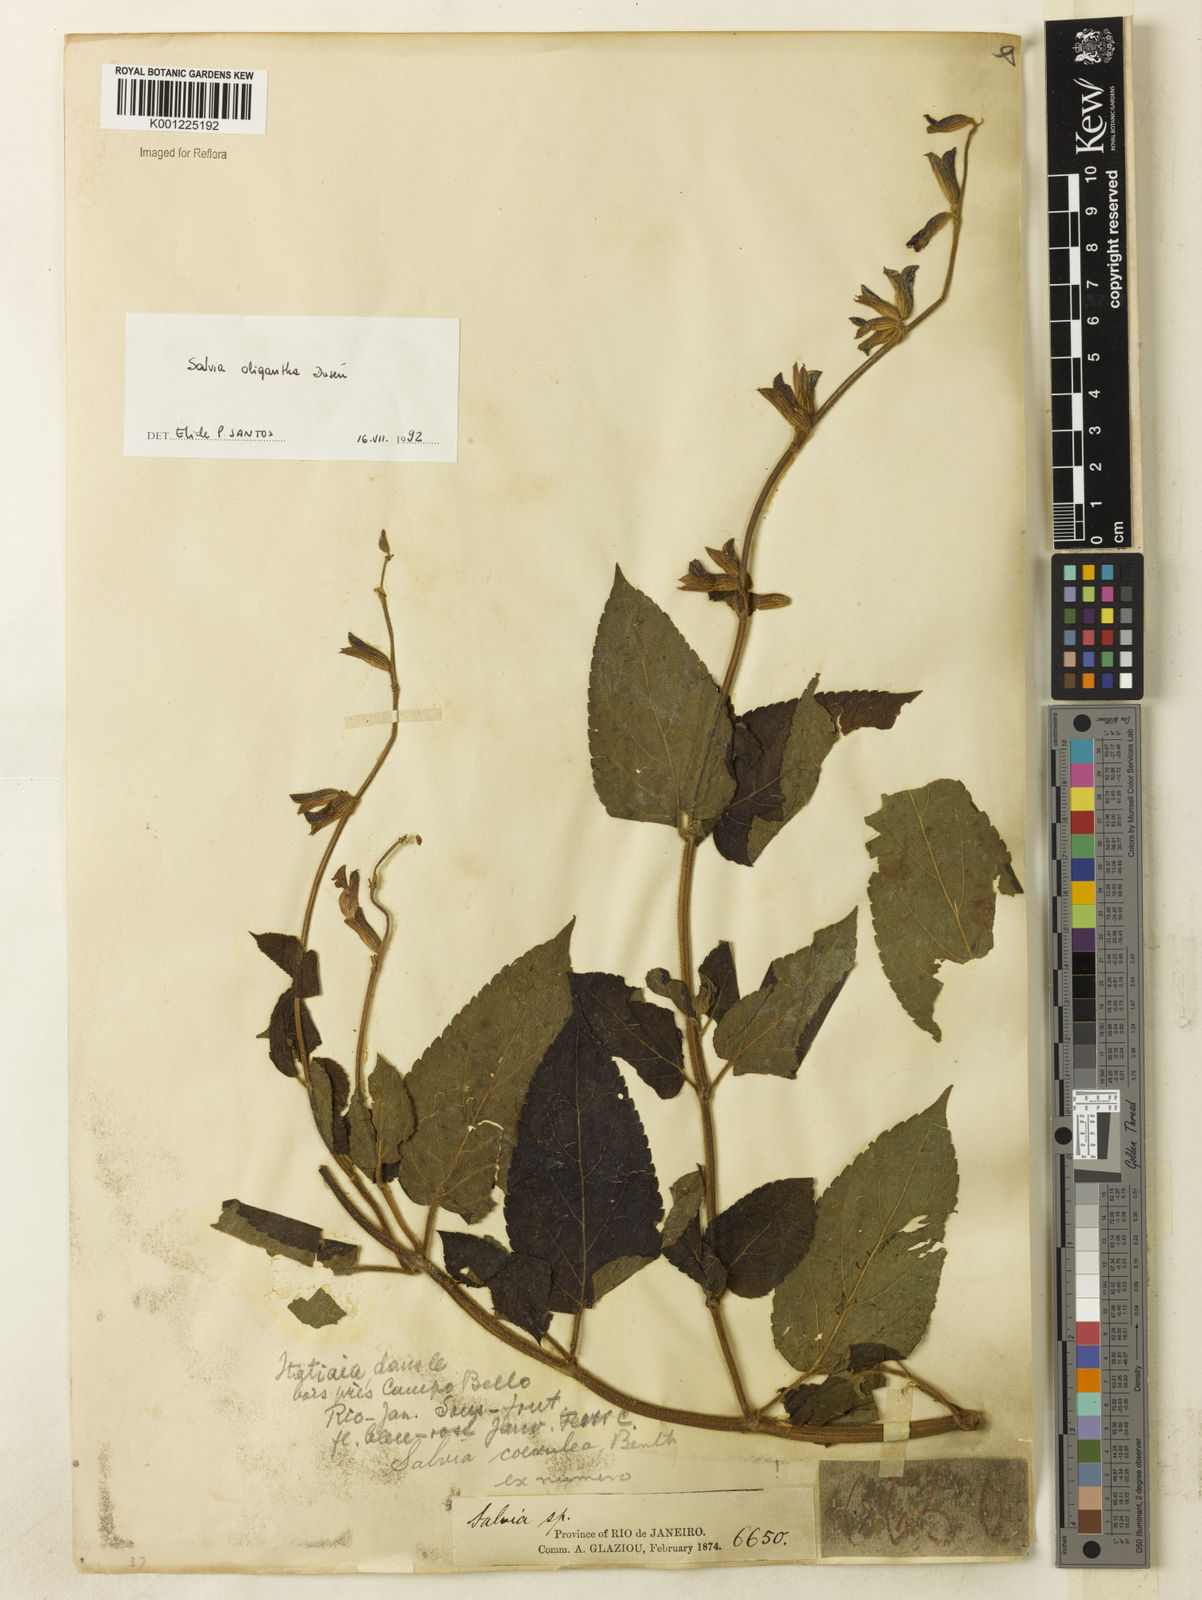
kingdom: Plantae
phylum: Tracheophyta
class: Magnoliopsida
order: Lamiales
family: Lamiaceae
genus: Salvia
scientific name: Salvia
